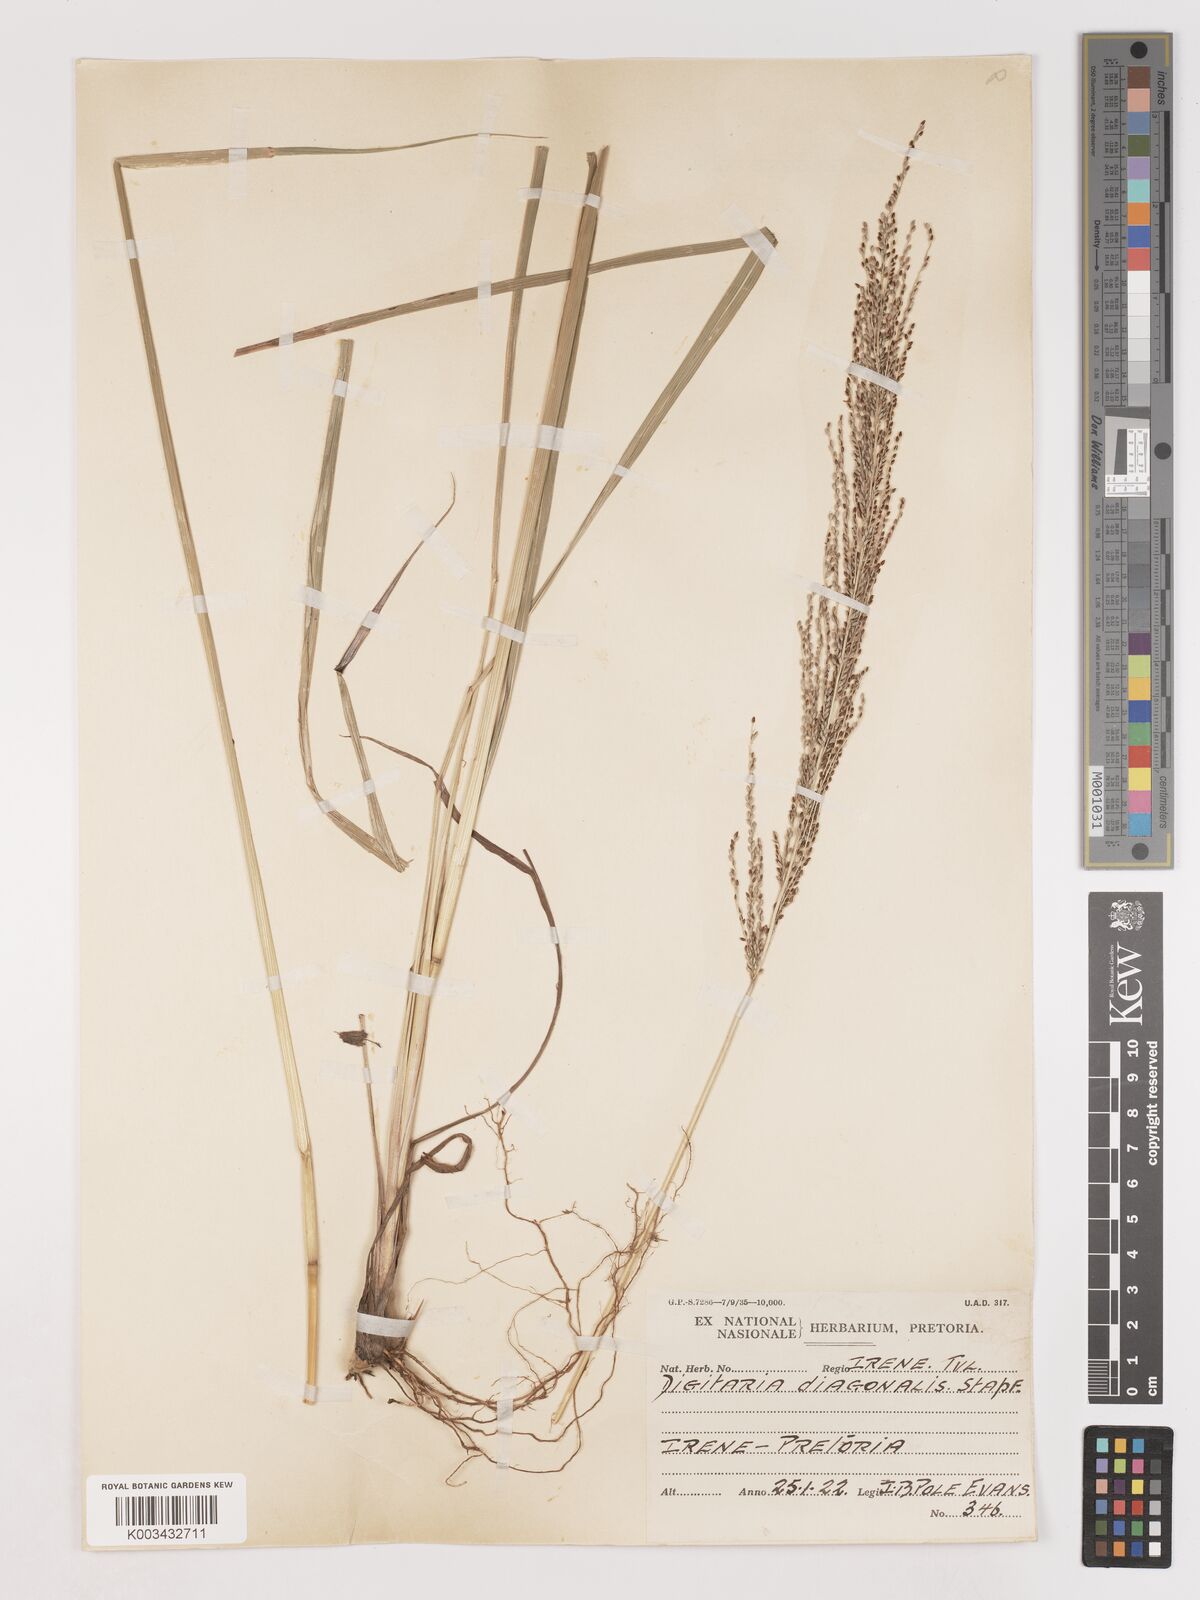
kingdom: Plantae
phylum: Tracheophyta
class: Liliopsida
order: Poales
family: Poaceae
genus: Digitaria
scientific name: Digitaria diagonalis
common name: Brown-seed finger grass
